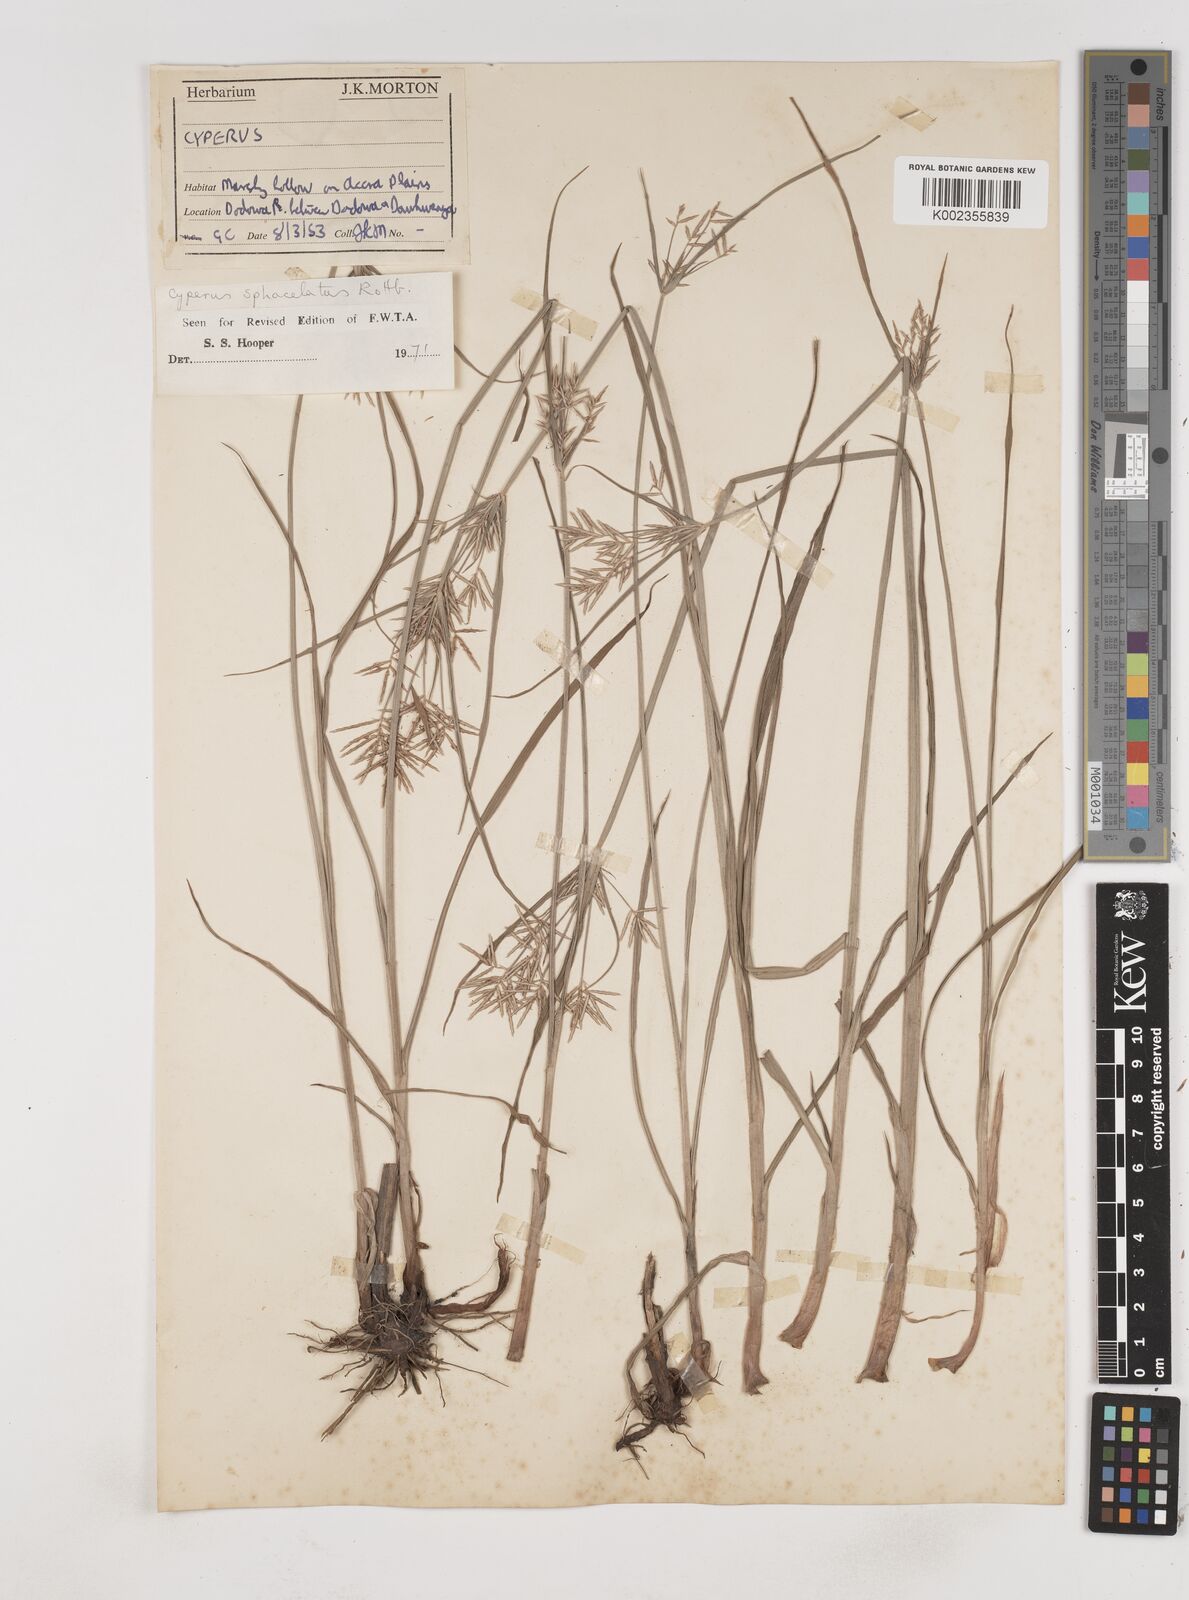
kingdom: Plantae
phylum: Tracheophyta
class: Liliopsida
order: Poales
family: Cyperaceae
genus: Cyperus
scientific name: Cyperus sphacelatus
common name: Roadside flatsedge
